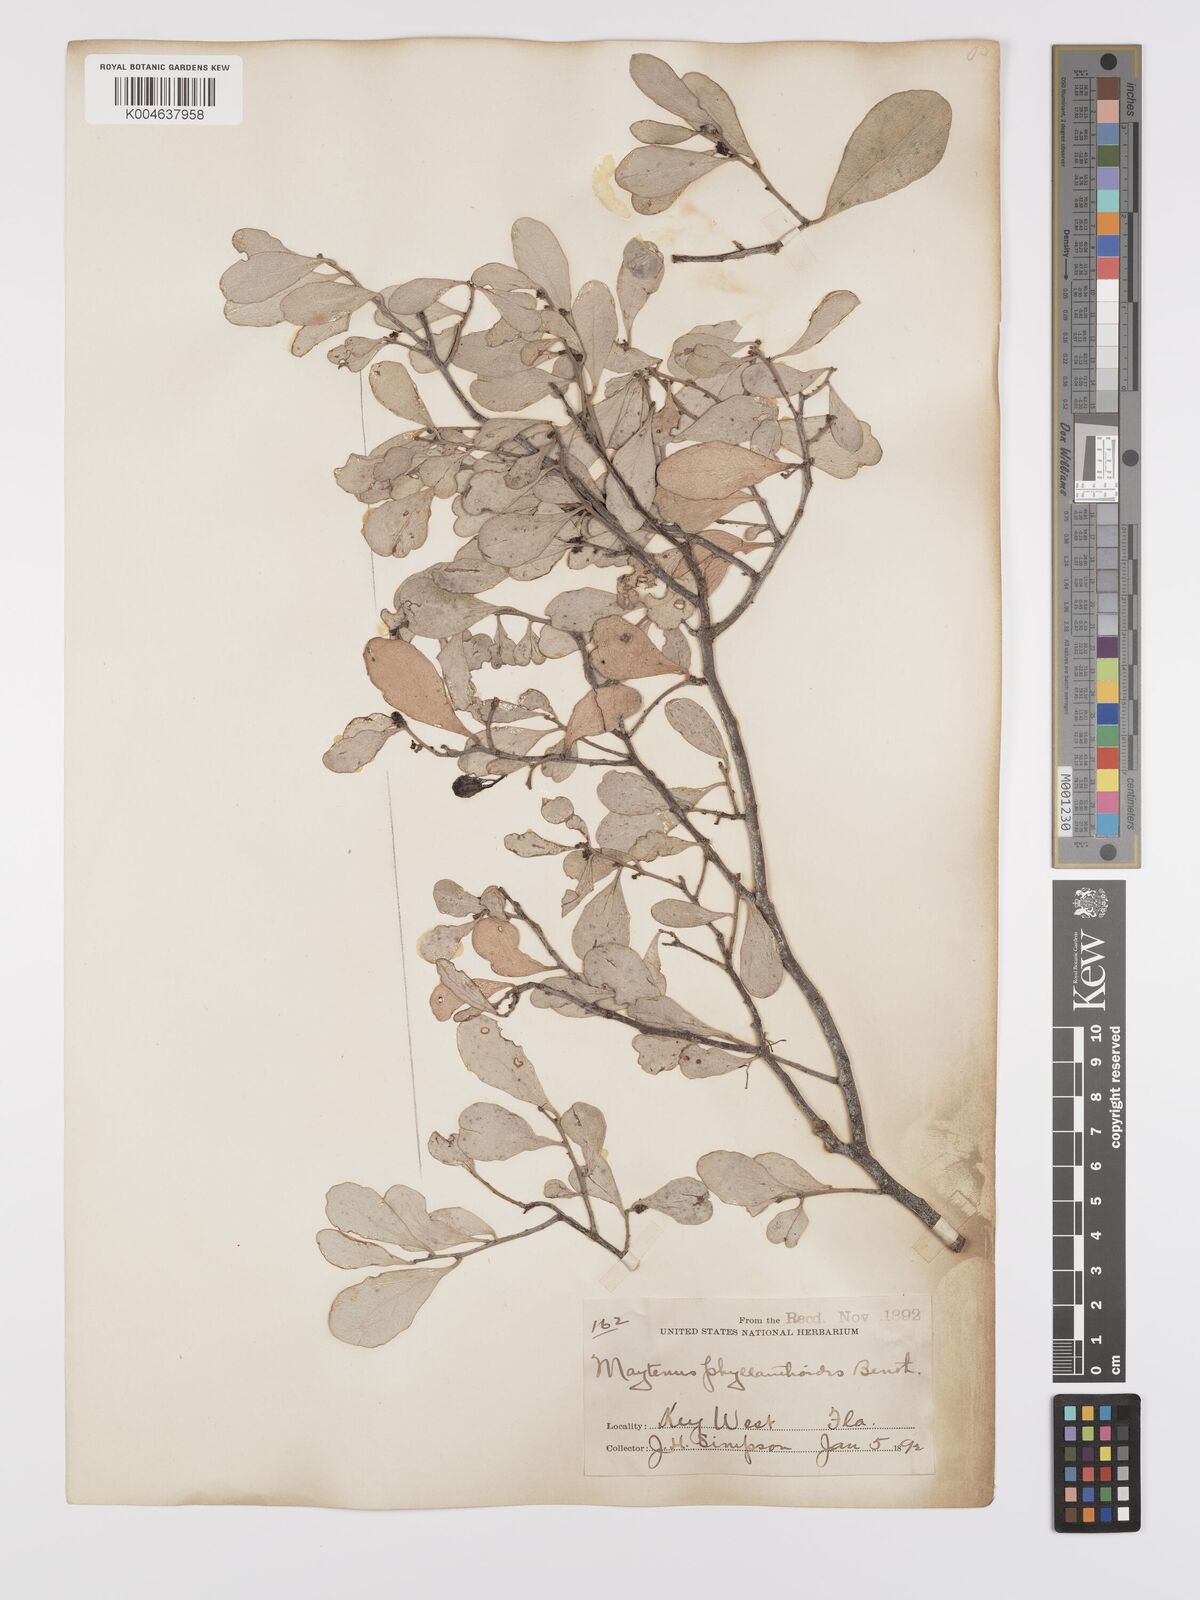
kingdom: Plantae
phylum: Tracheophyta
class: Magnoliopsida
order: Celastrales
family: Celastraceae
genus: Tricerma
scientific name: Tricerma phyllanthoides
